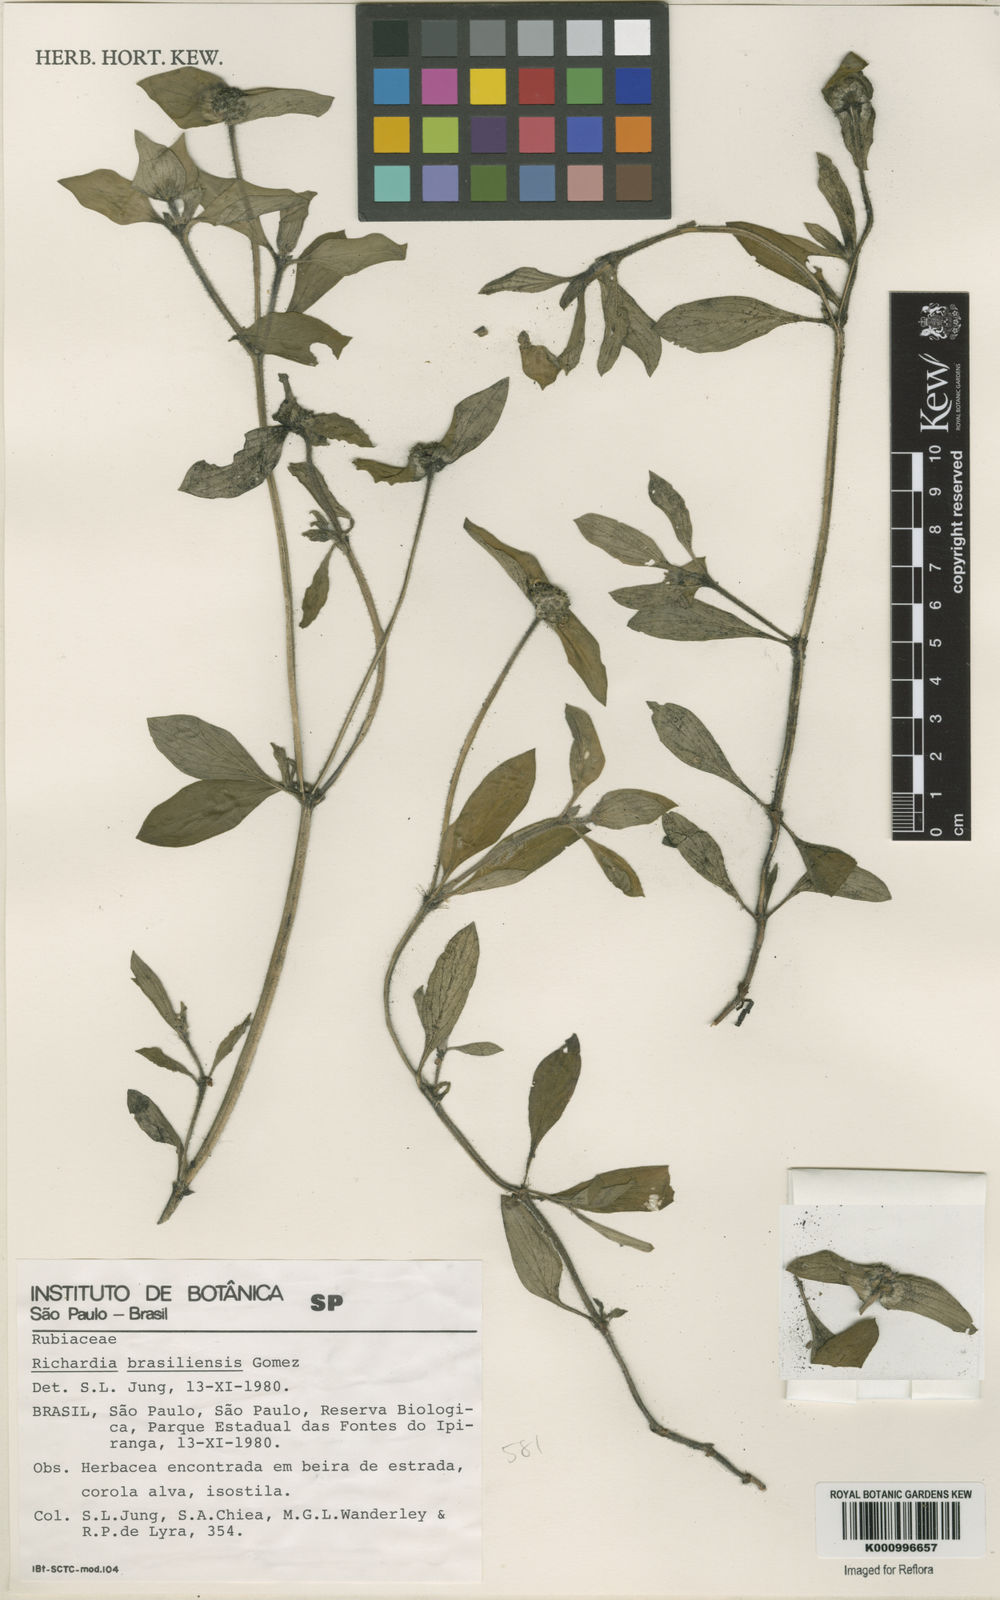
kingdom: Plantae
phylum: Tracheophyta
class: Magnoliopsida
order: Gentianales
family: Rubiaceae
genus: Richardia
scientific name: Richardia brasiliensis
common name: Tropical mexican clover
